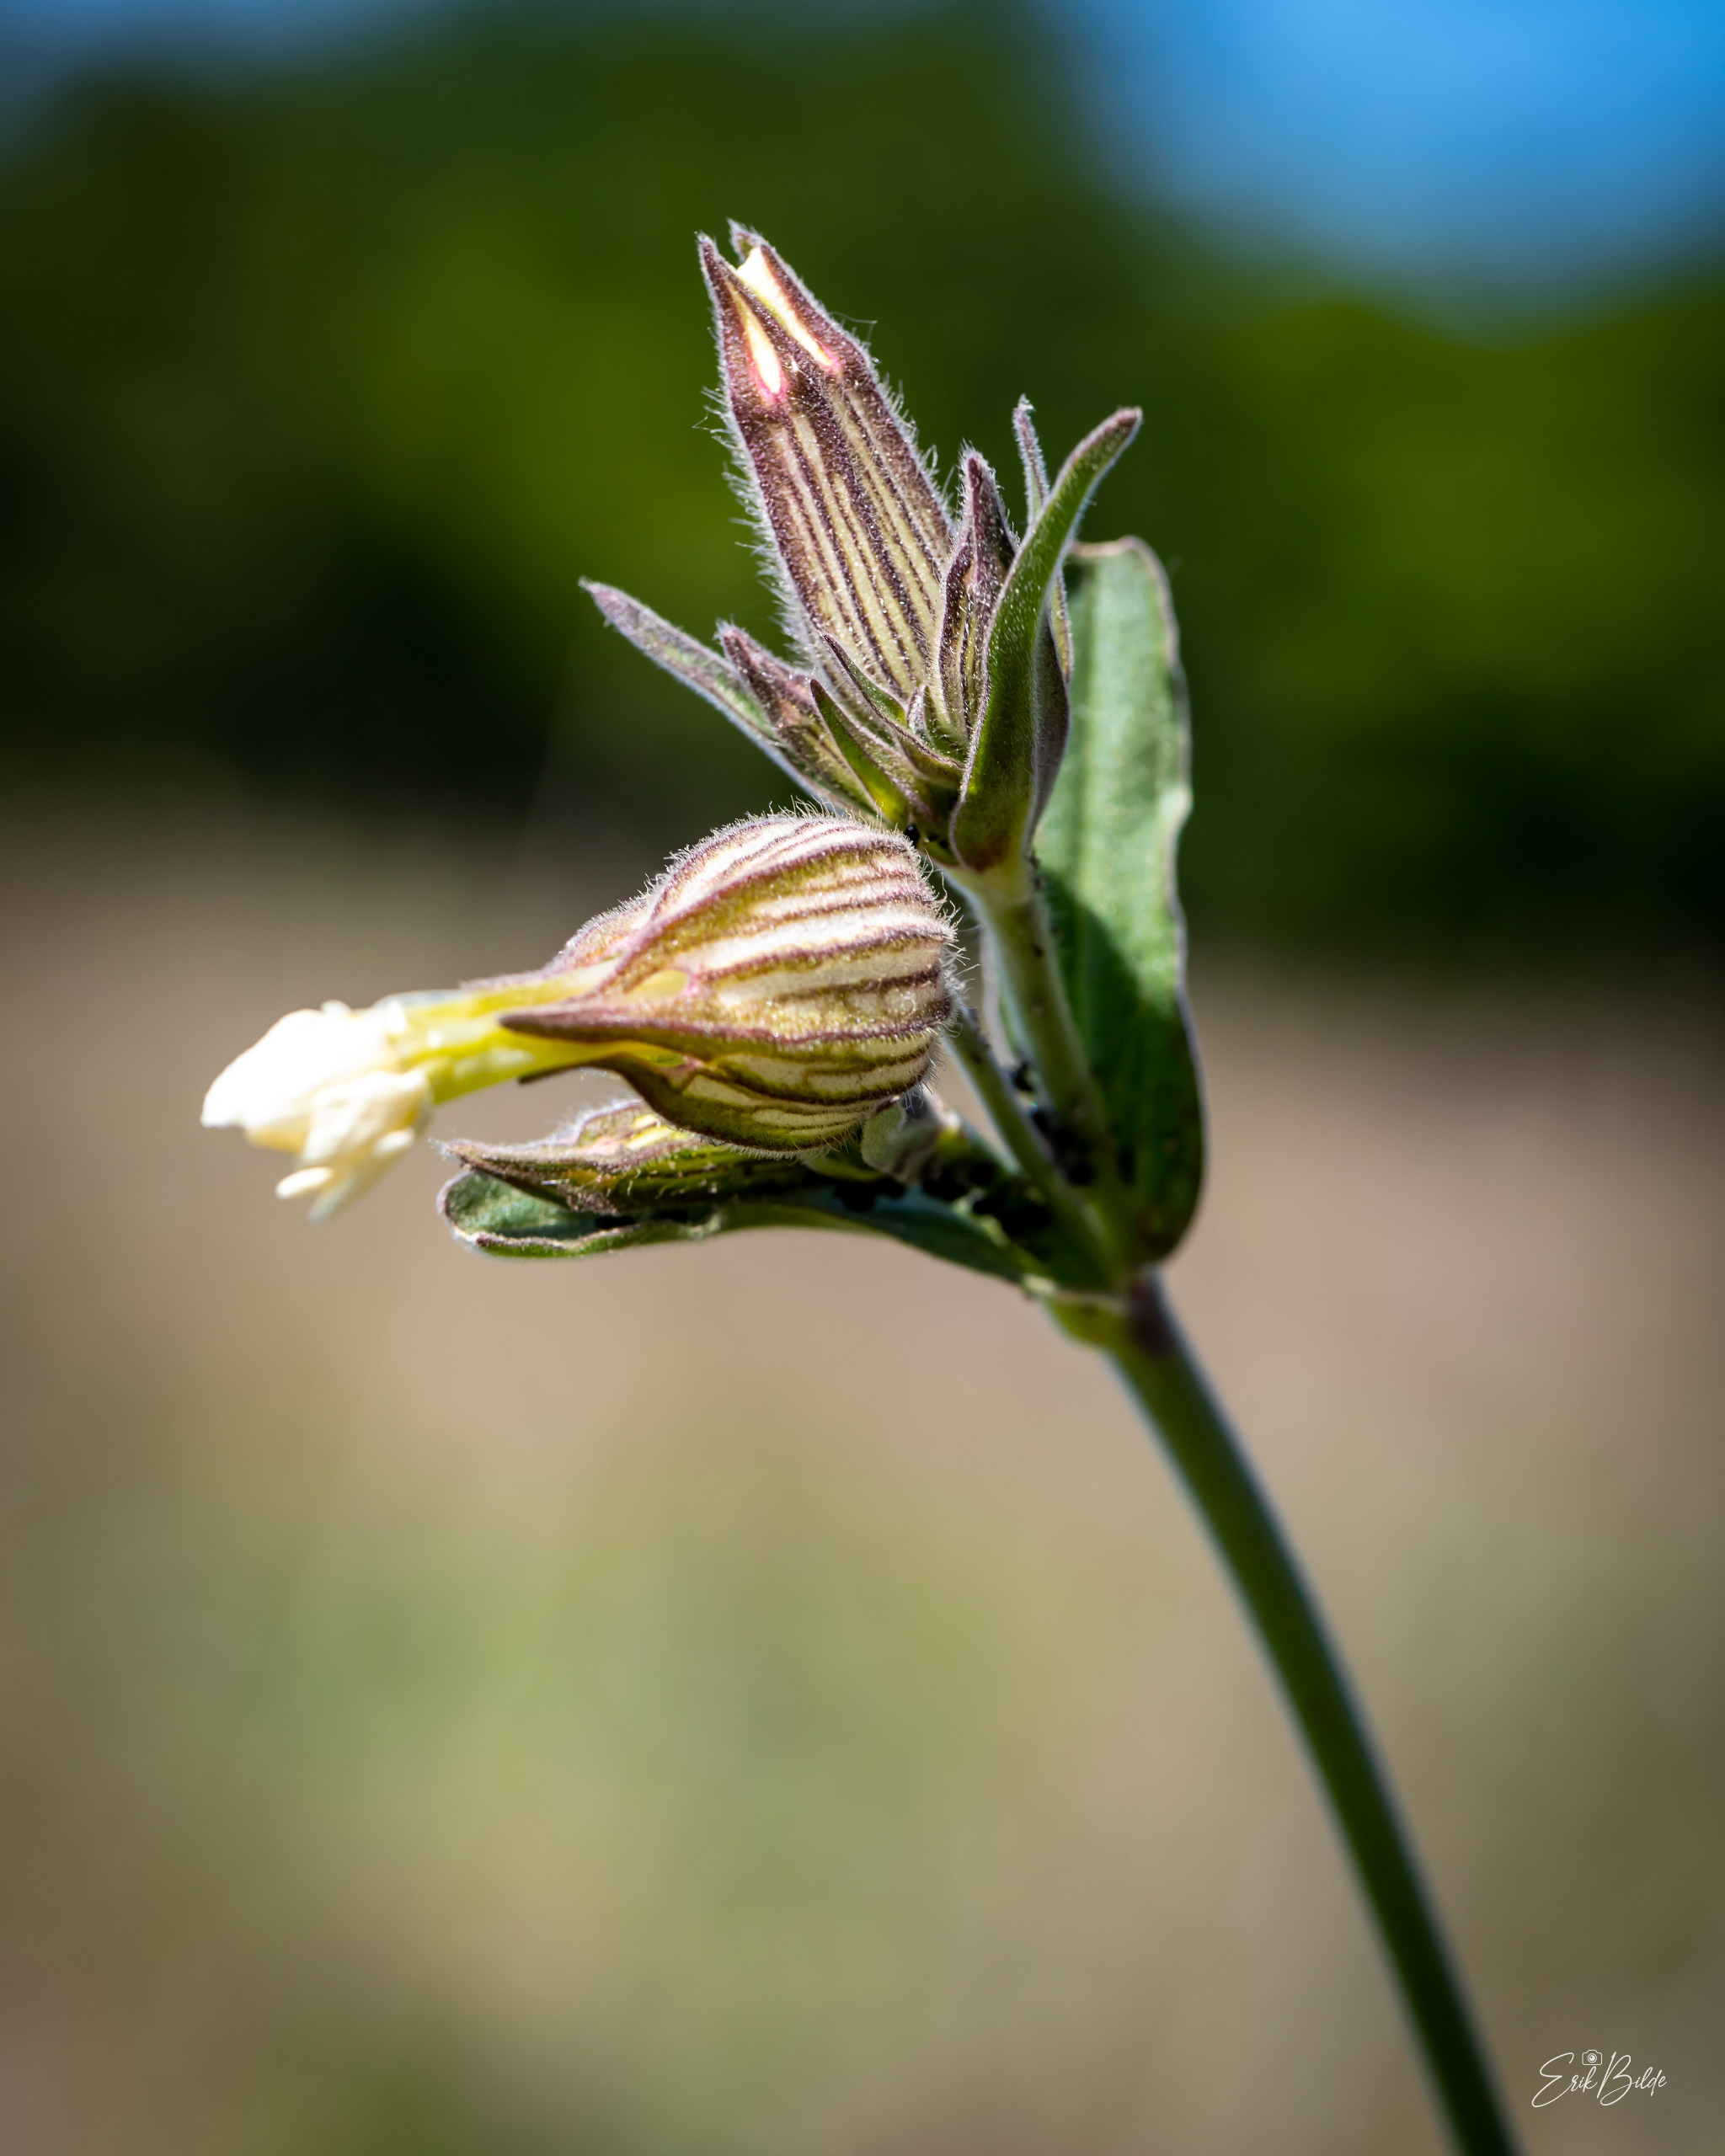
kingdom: Plantae
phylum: Tracheophyta
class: Magnoliopsida
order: Caryophyllales
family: Caryophyllaceae
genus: Silene
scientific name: Silene latifolia
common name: Aftenpragtstjerne
